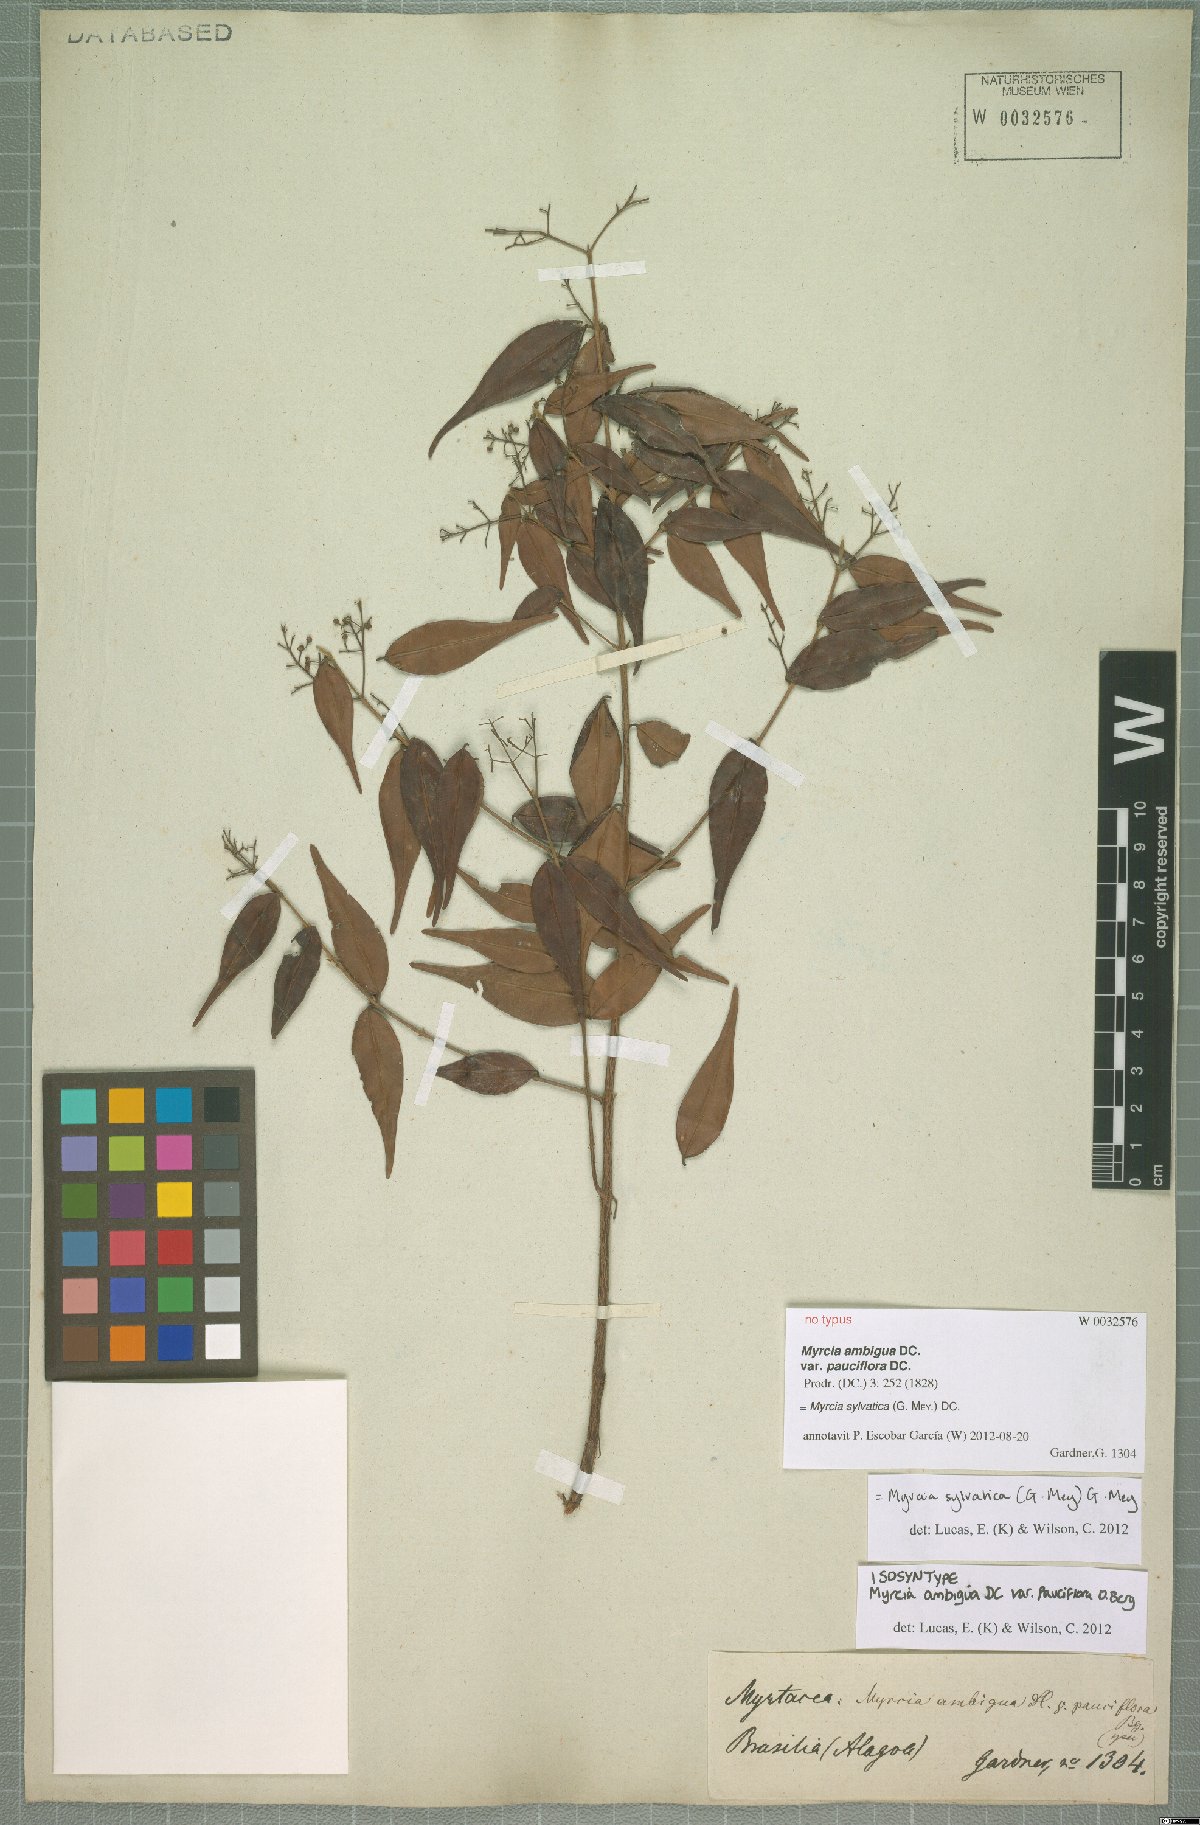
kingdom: Plantae
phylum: Tracheophyta
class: Magnoliopsida
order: Myrtales
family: Myrtaceae
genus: Myrcia
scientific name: Myrcia sylvatica
